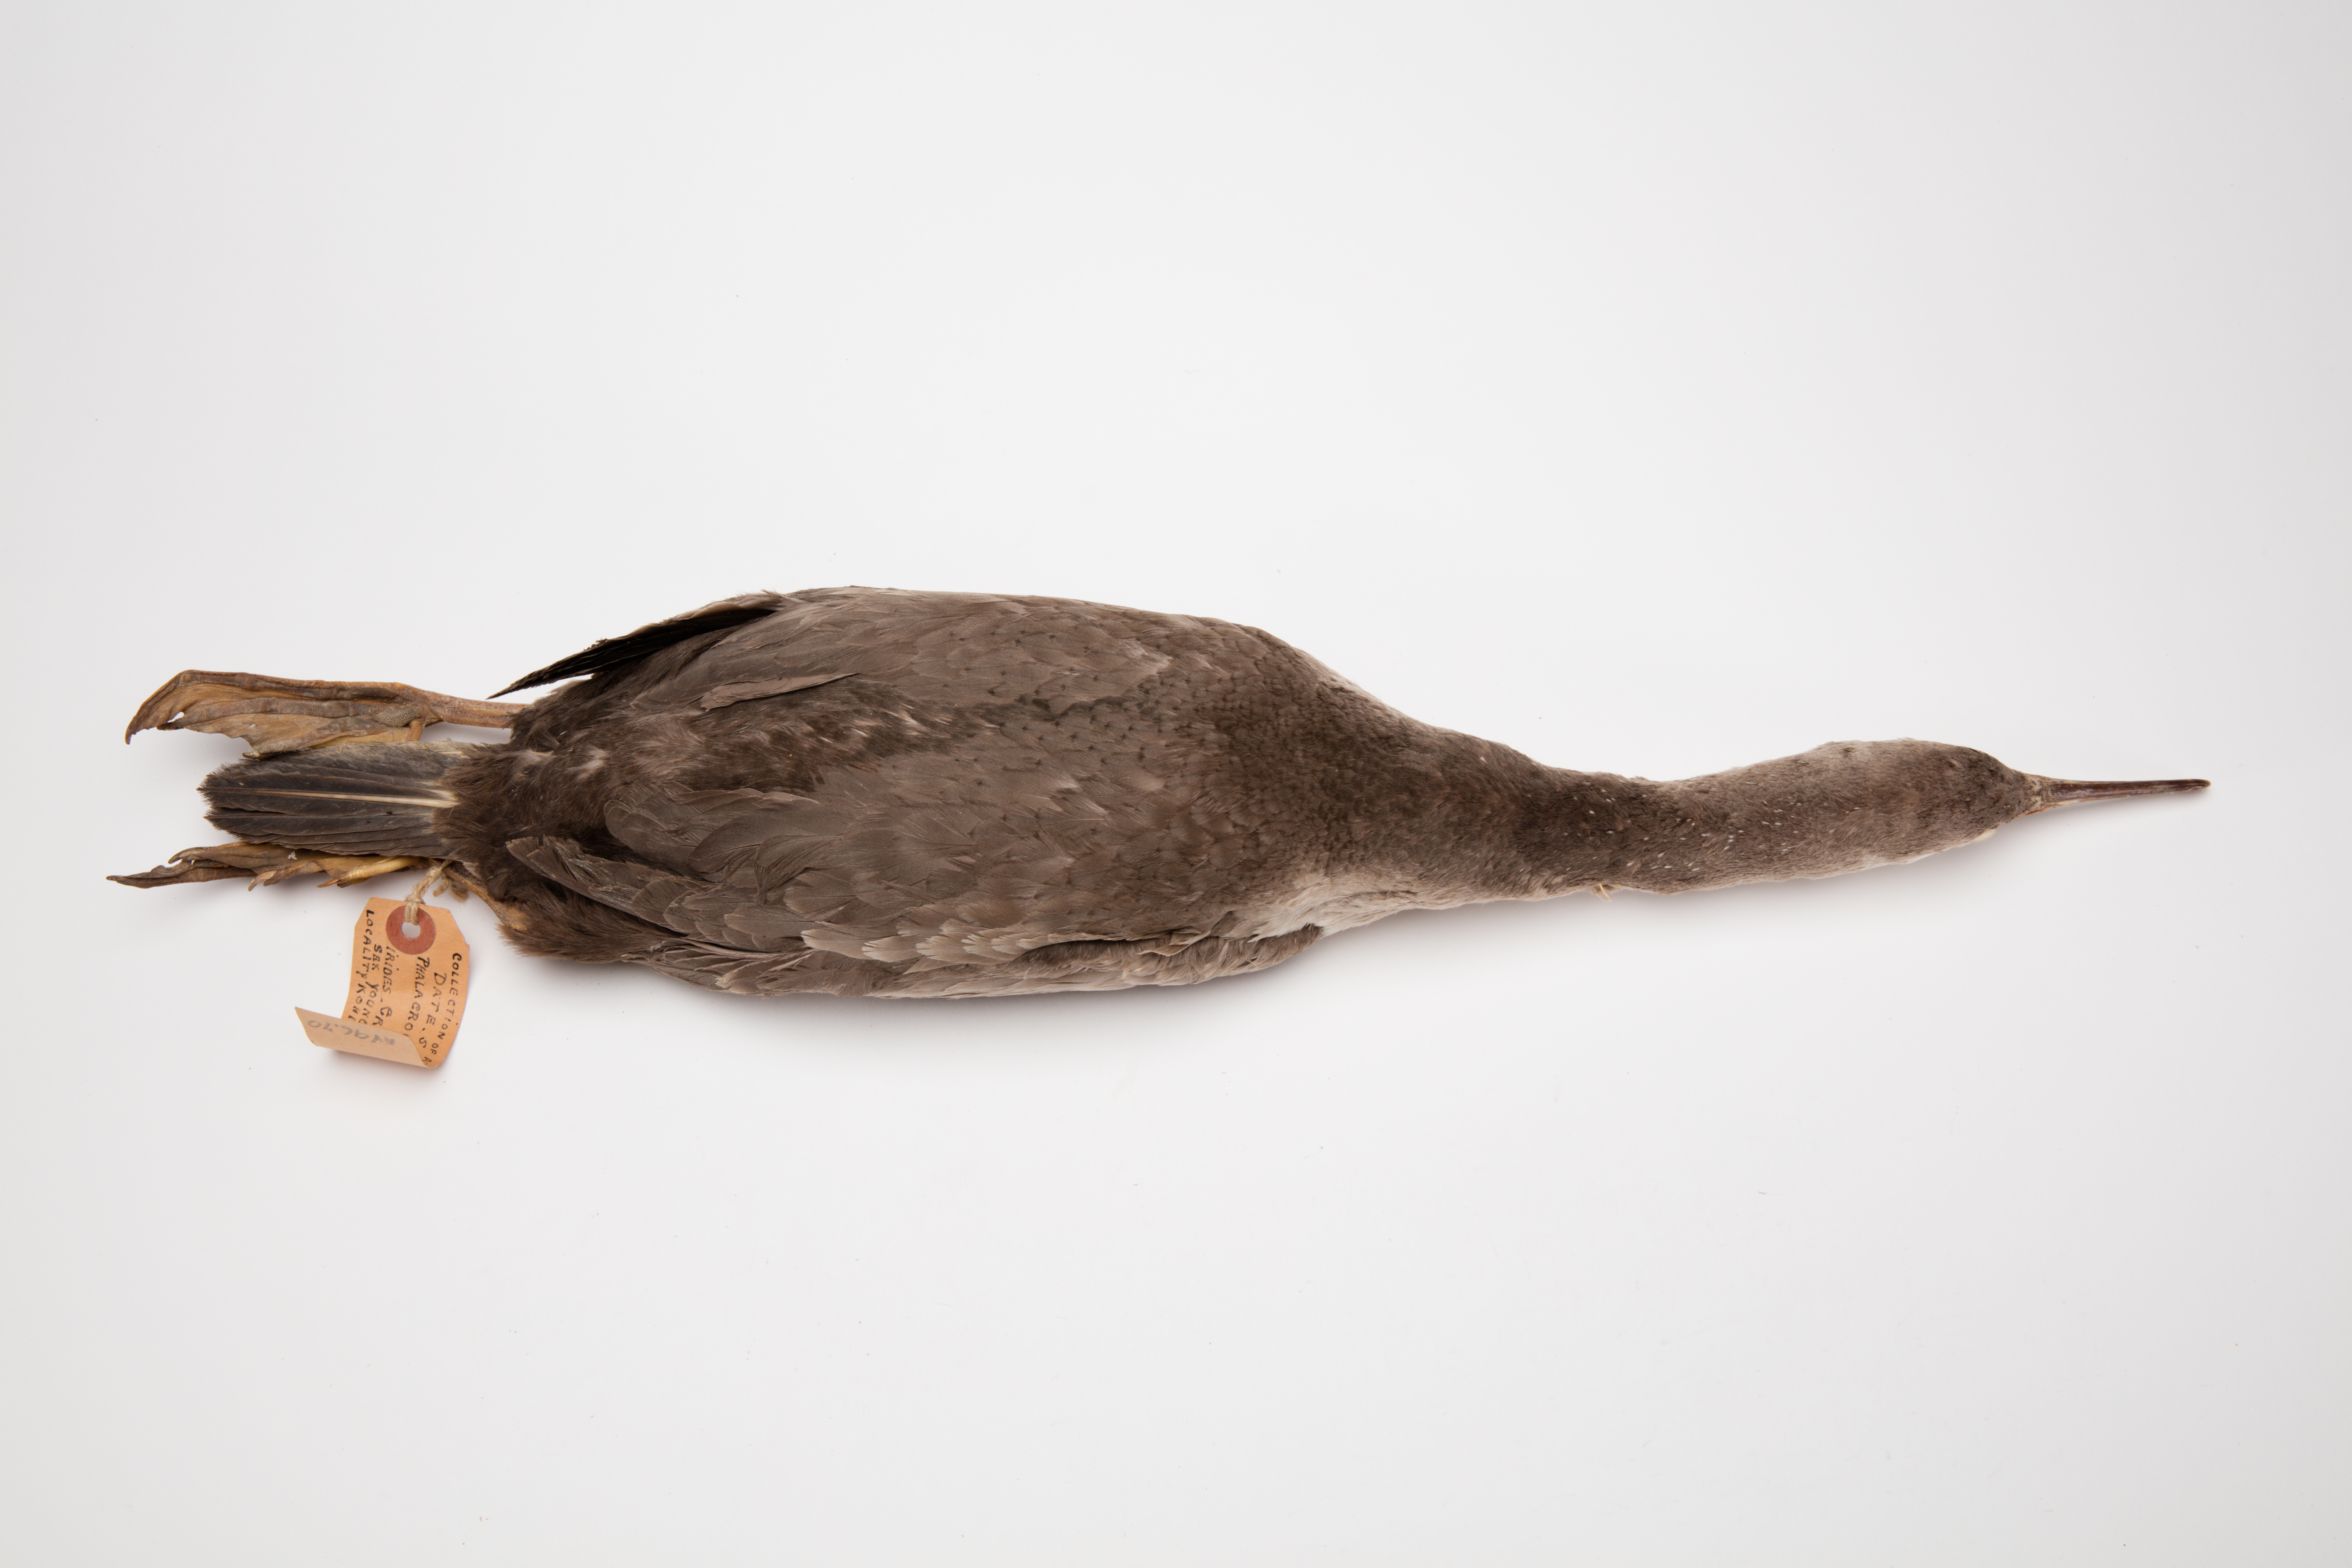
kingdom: Animalia
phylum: Chordata
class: Aves
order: Suliformes
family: Phalacrocoracidae
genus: Phalacrocorax
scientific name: Phalacrocorax punctatus
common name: Spotted shag
